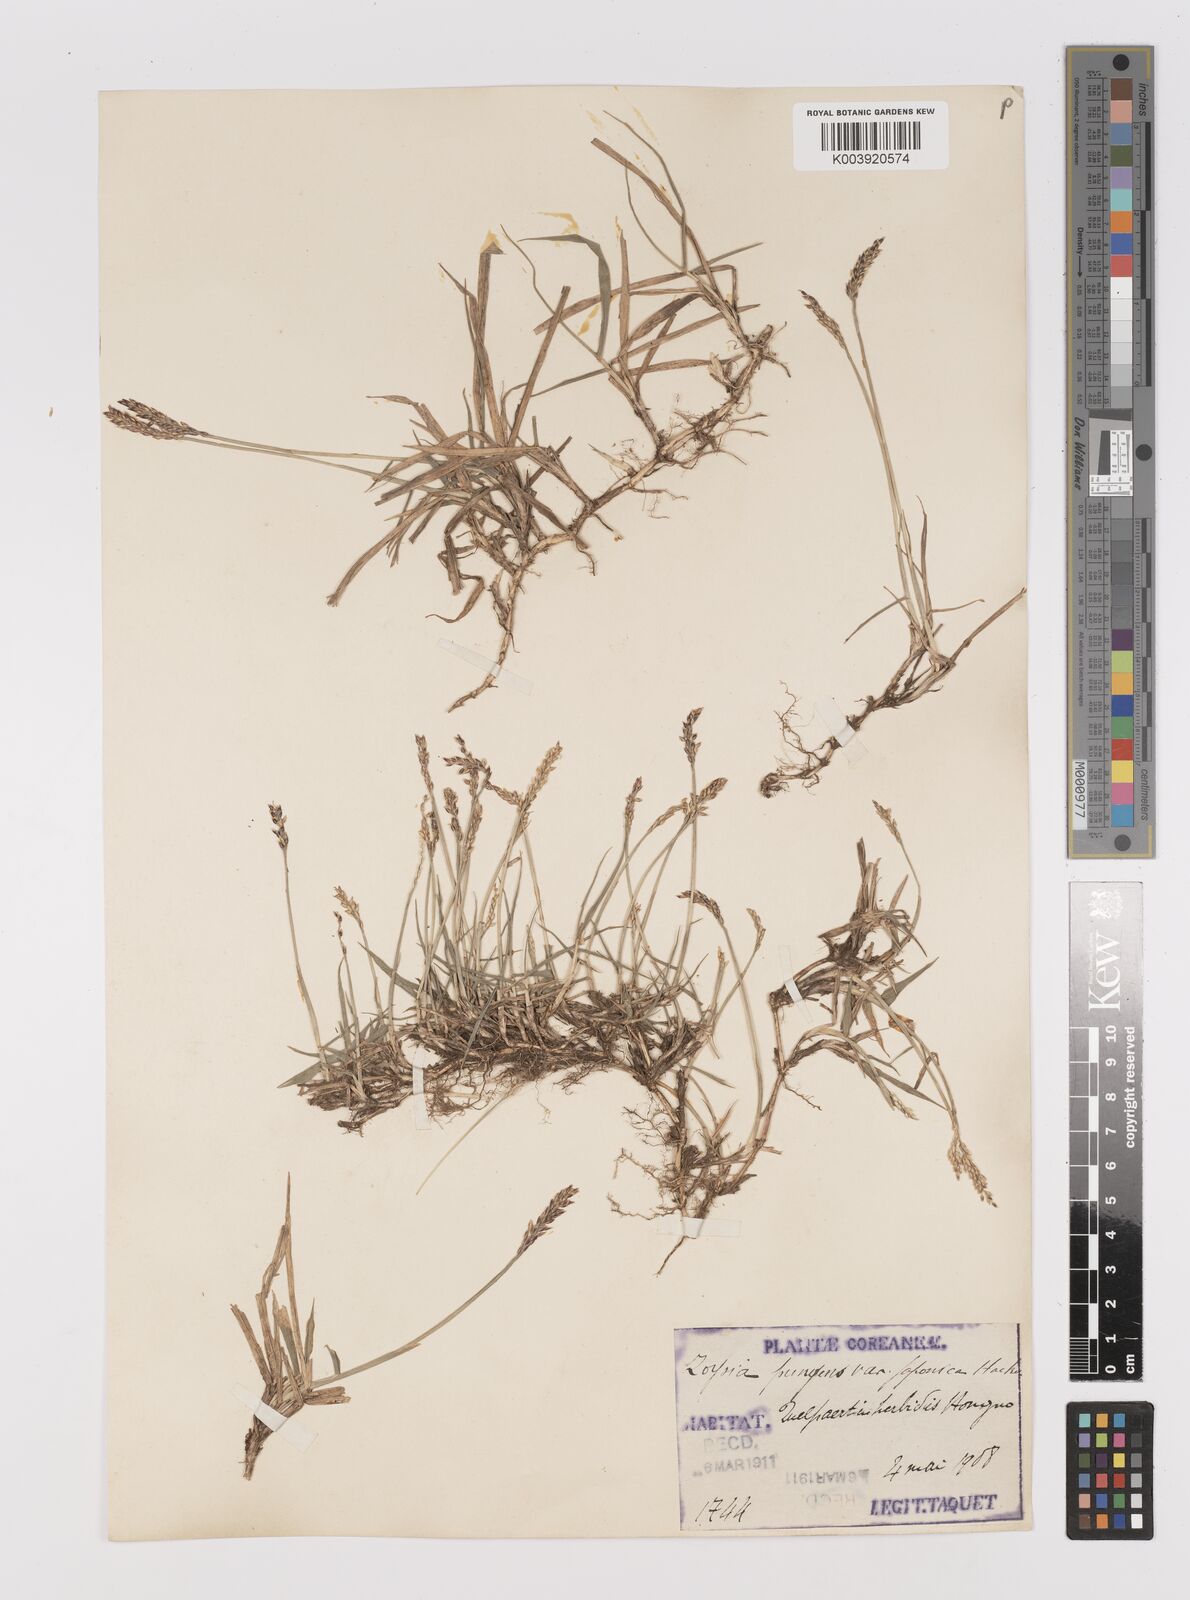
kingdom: Plantae
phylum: Tracheophyta
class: Liliopsida
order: Poales
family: Poaceae
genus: Zoysia
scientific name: Zoysia japonica
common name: Korean lawngrass
